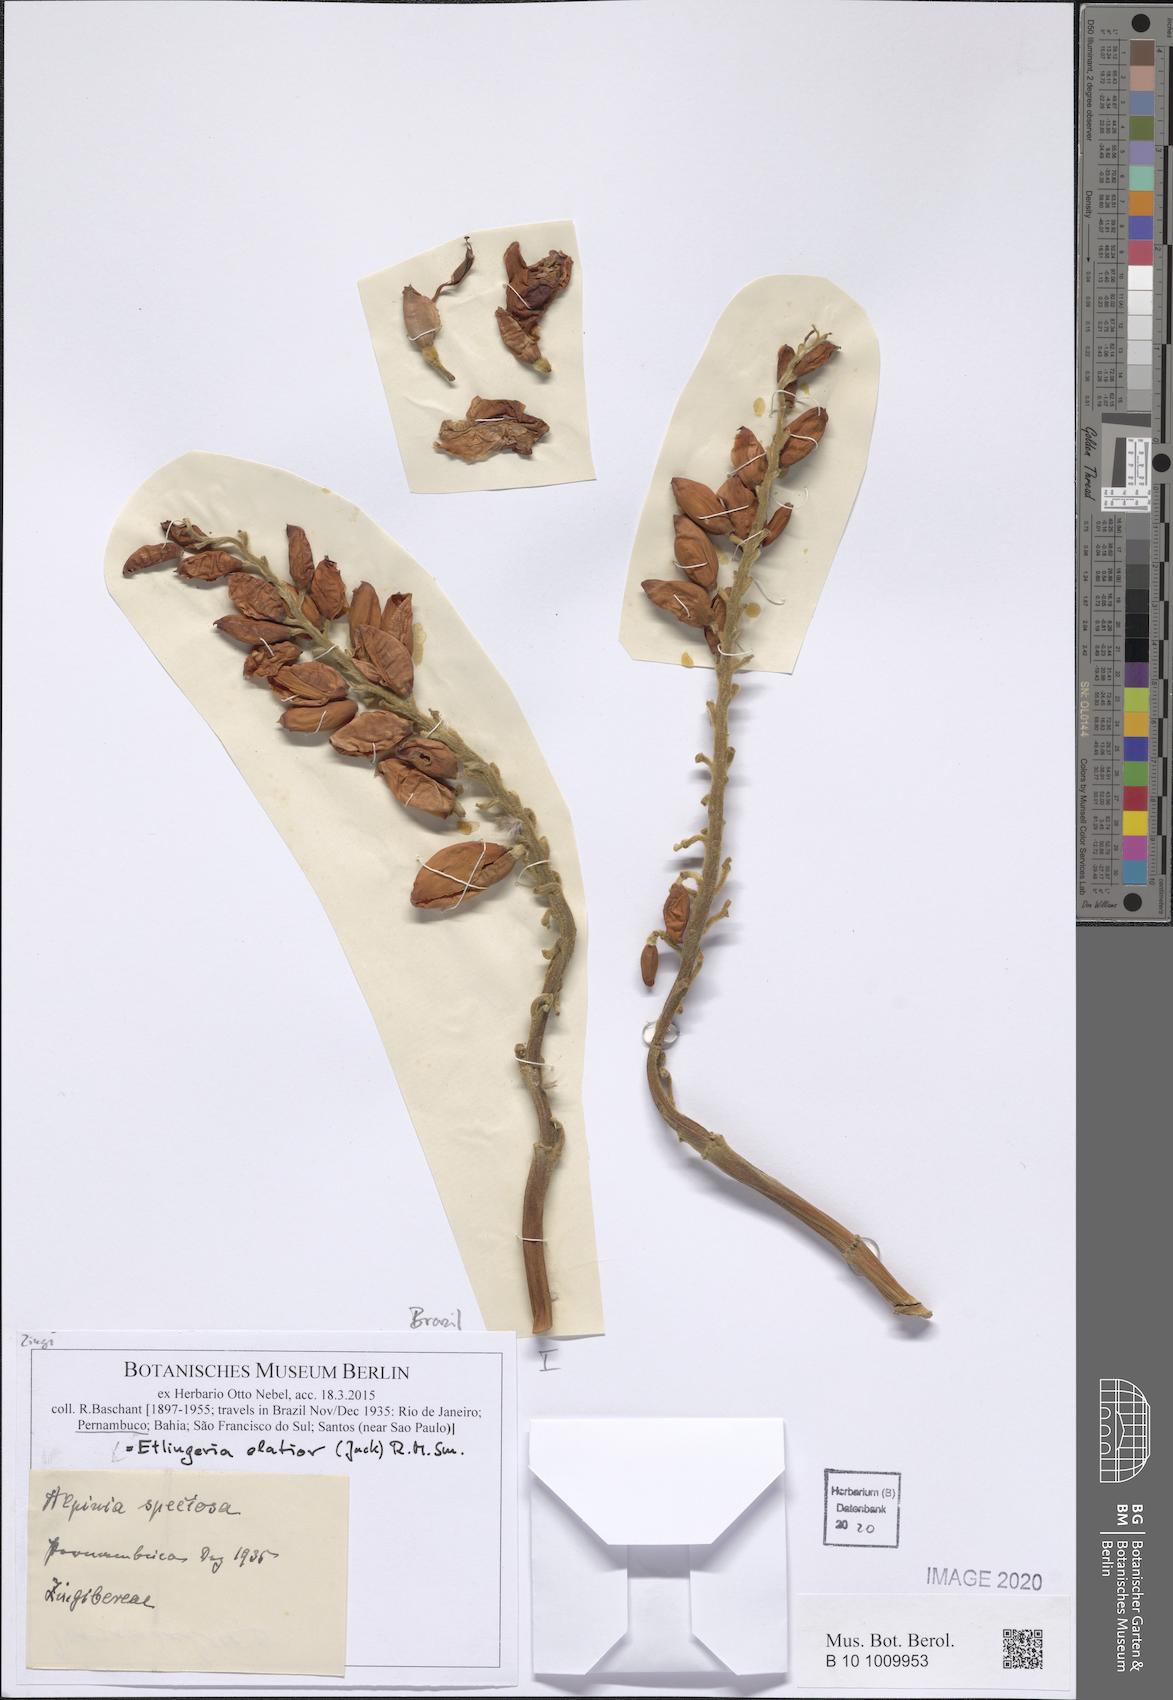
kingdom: Plantae
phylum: Tracheophyta
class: Liliopsida
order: Zingiberales
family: Zingiberaceae
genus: Etlingera
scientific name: Etlingera elatior
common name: Philippine waxflower
